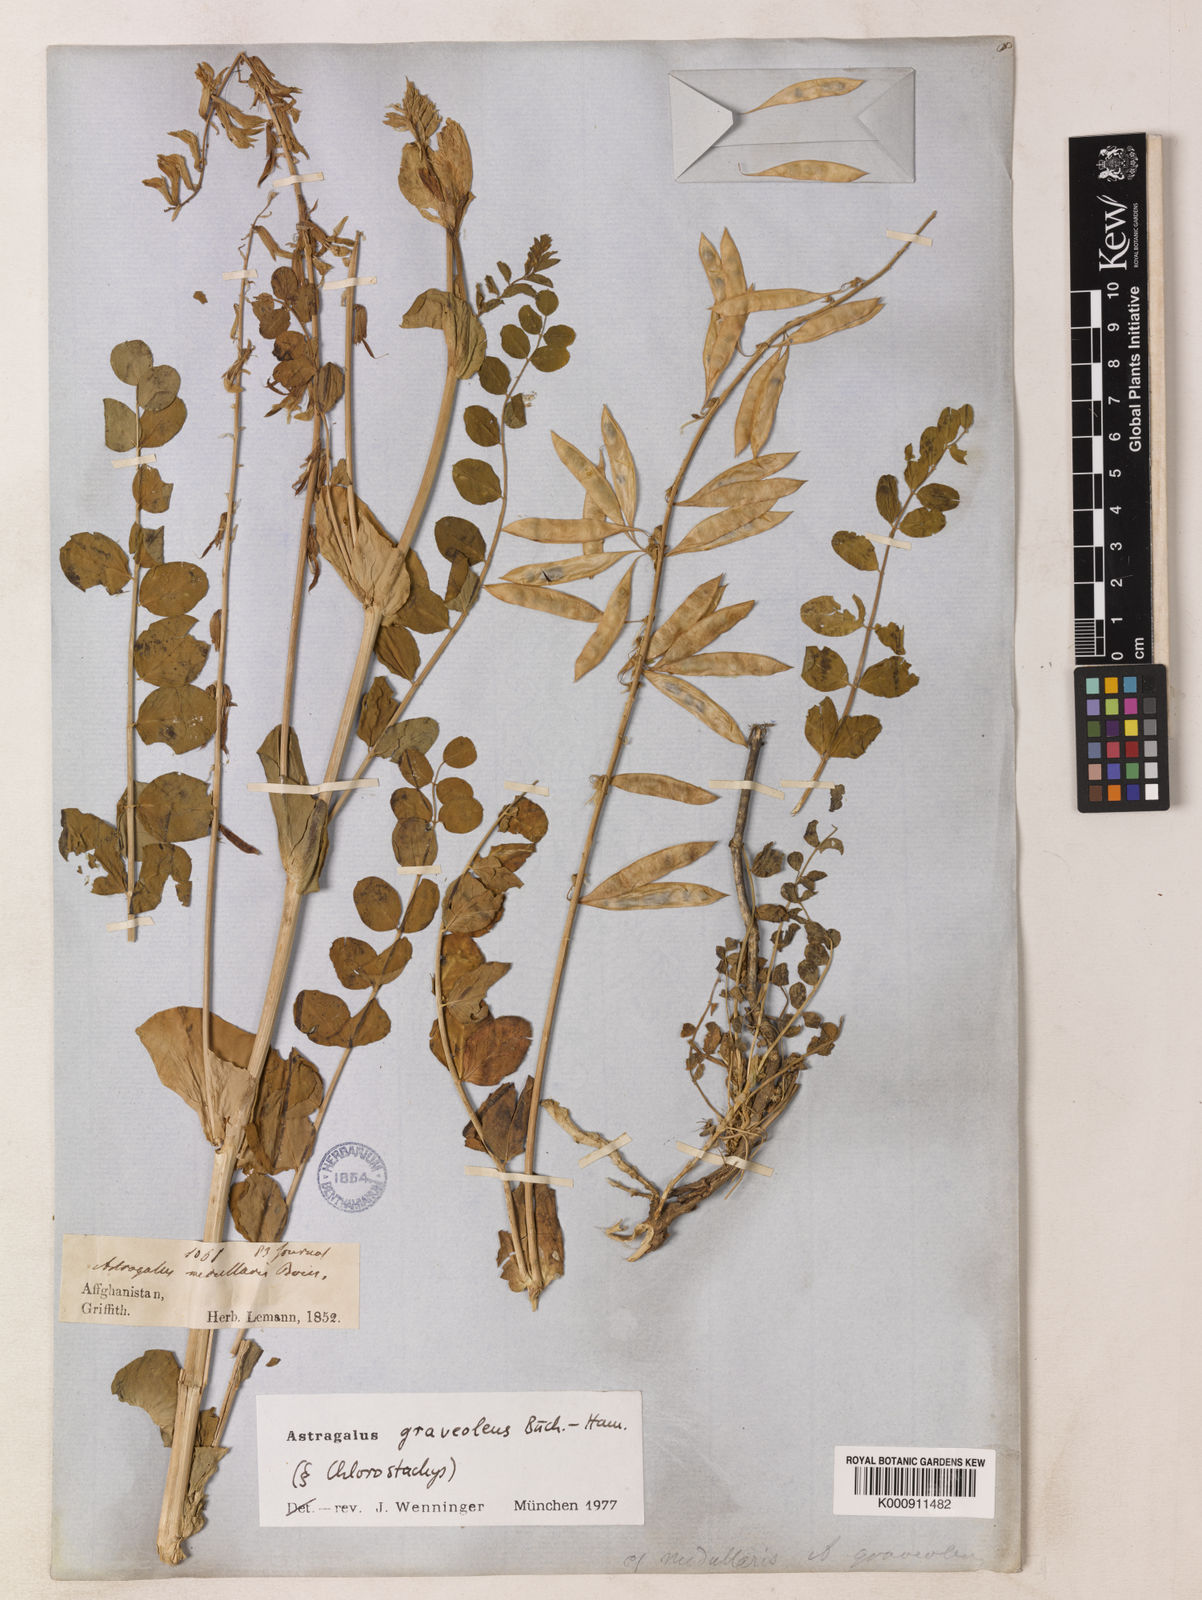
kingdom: Plantae
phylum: Tracheophyta
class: Magnoliopsida
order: Fabales
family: Fabaceae
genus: Astragalus
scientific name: Astragalus
